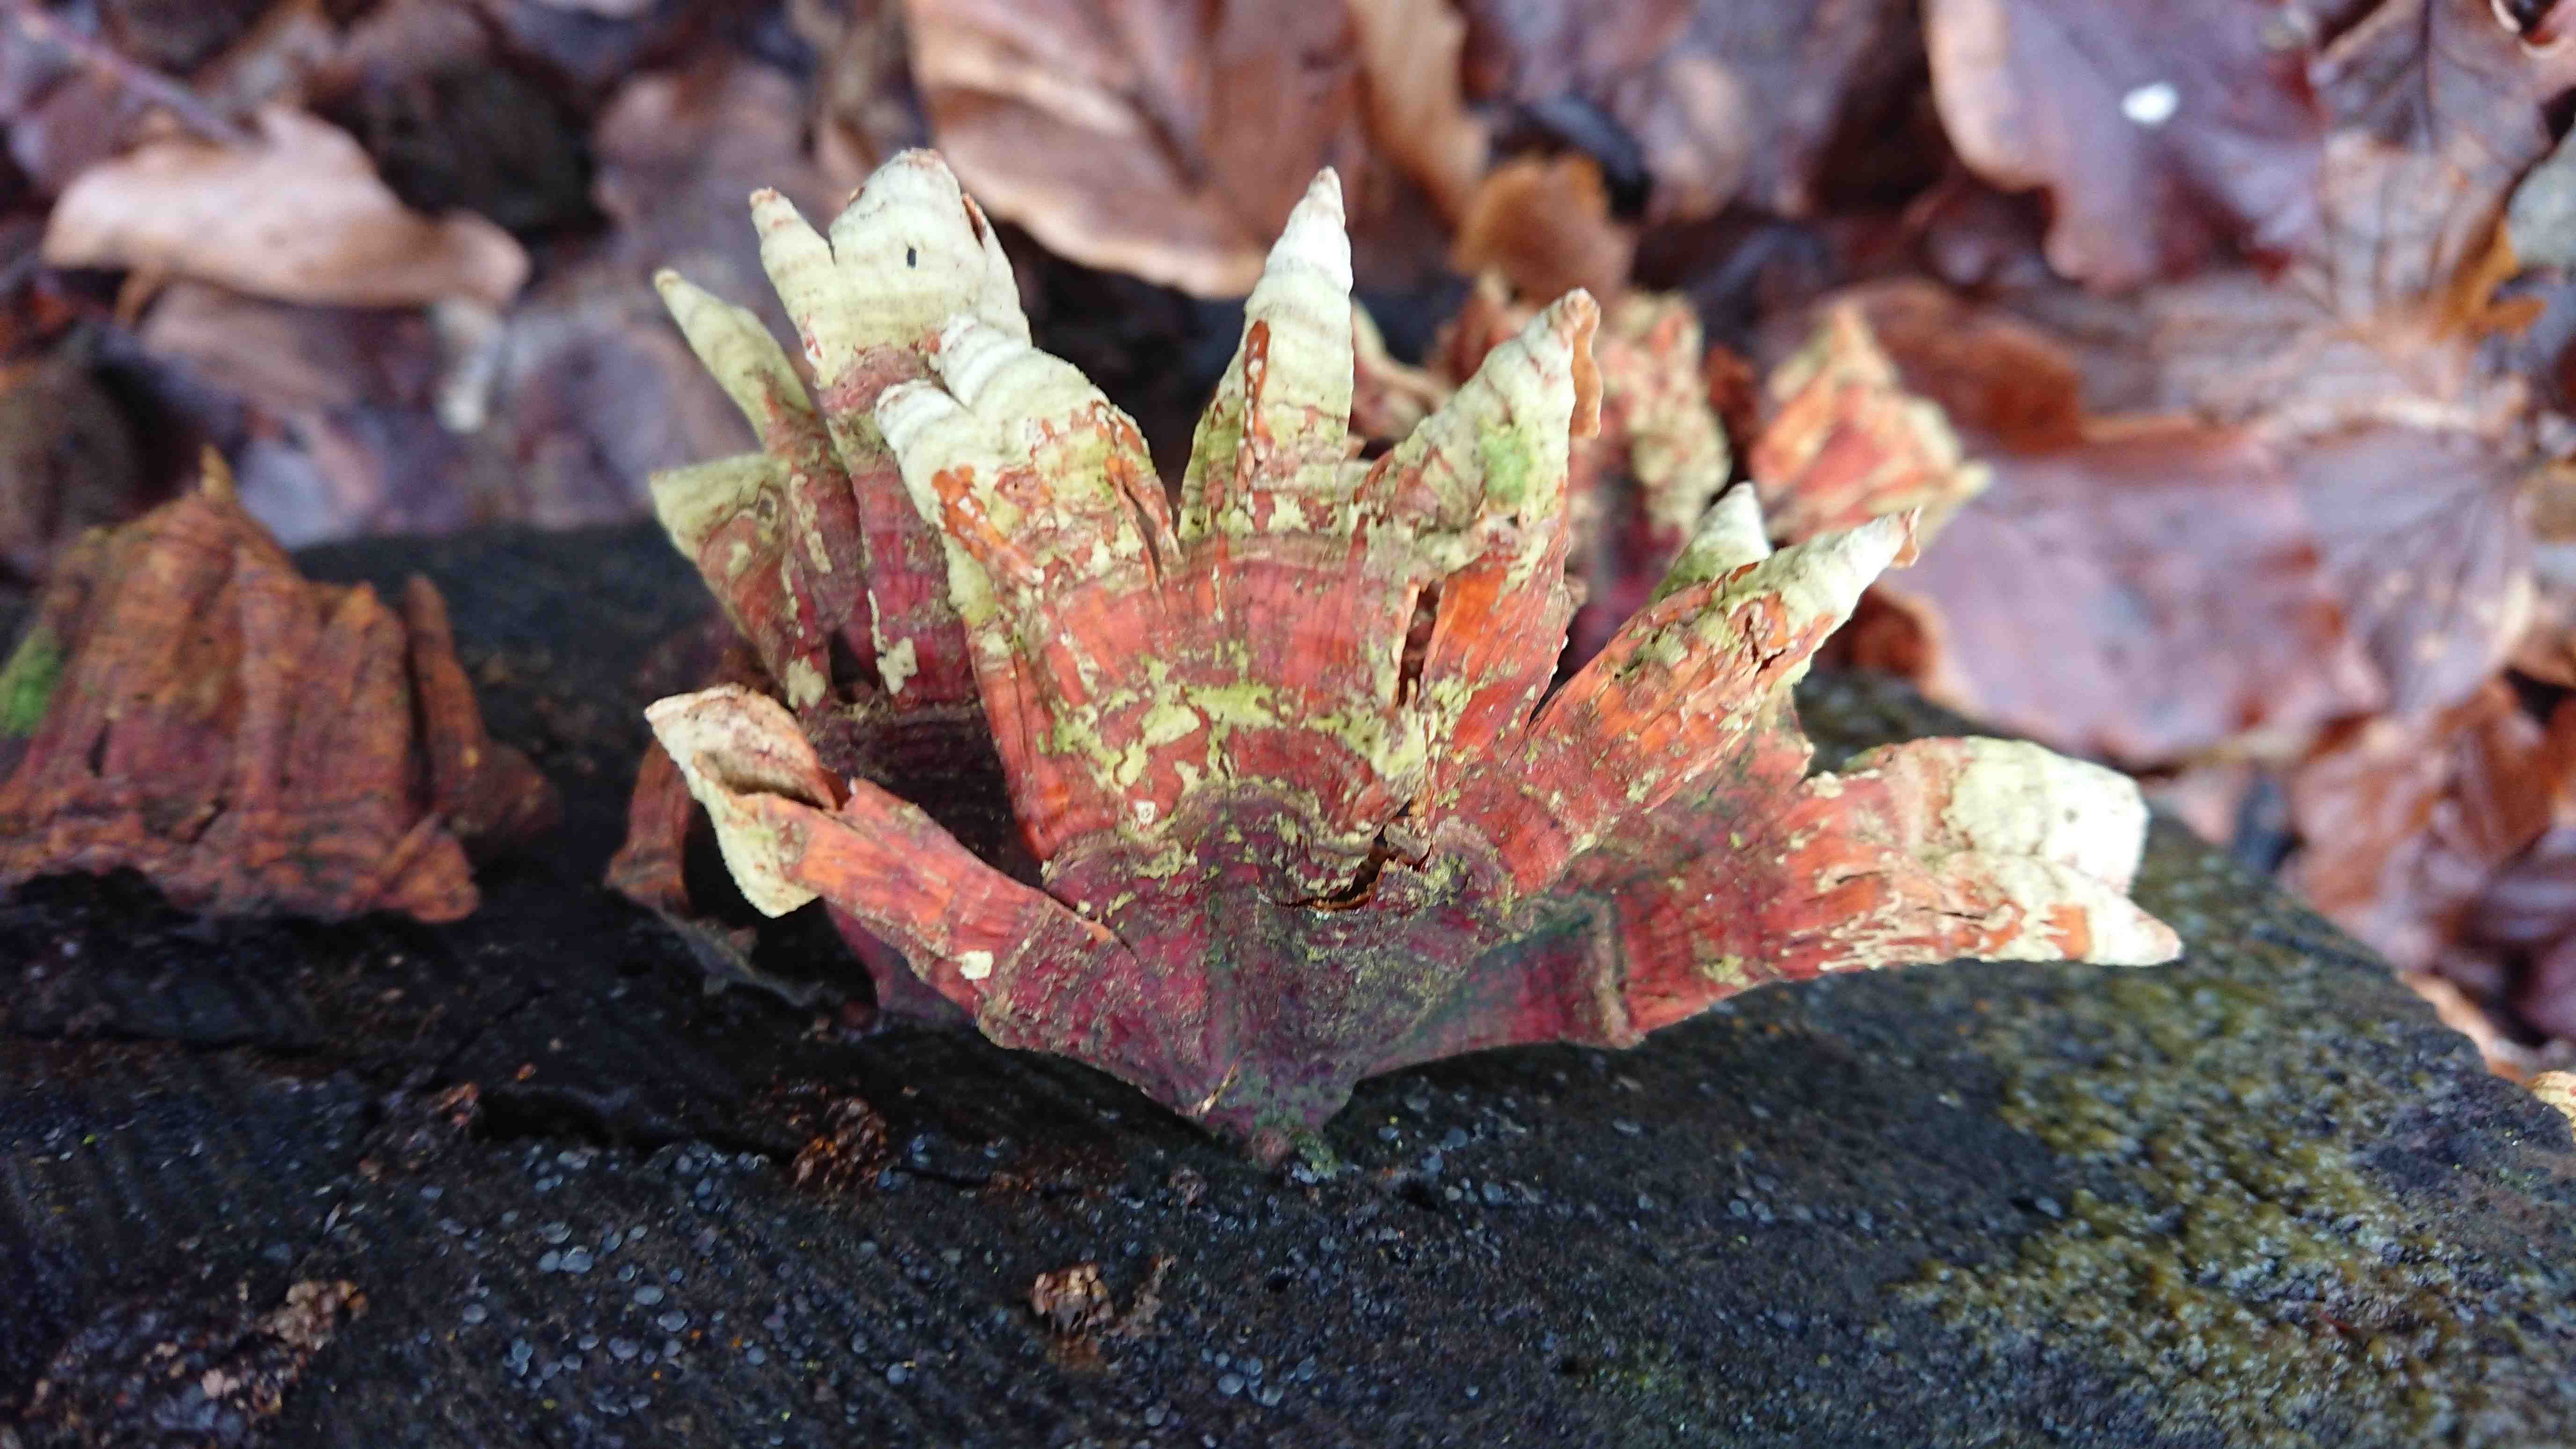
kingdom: Fungi
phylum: Basidiomycota
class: Agaricomycetes
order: Russulales
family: Stereaceae
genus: Stereum
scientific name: Stereum subtomentosum
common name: smuk lædersvamp
